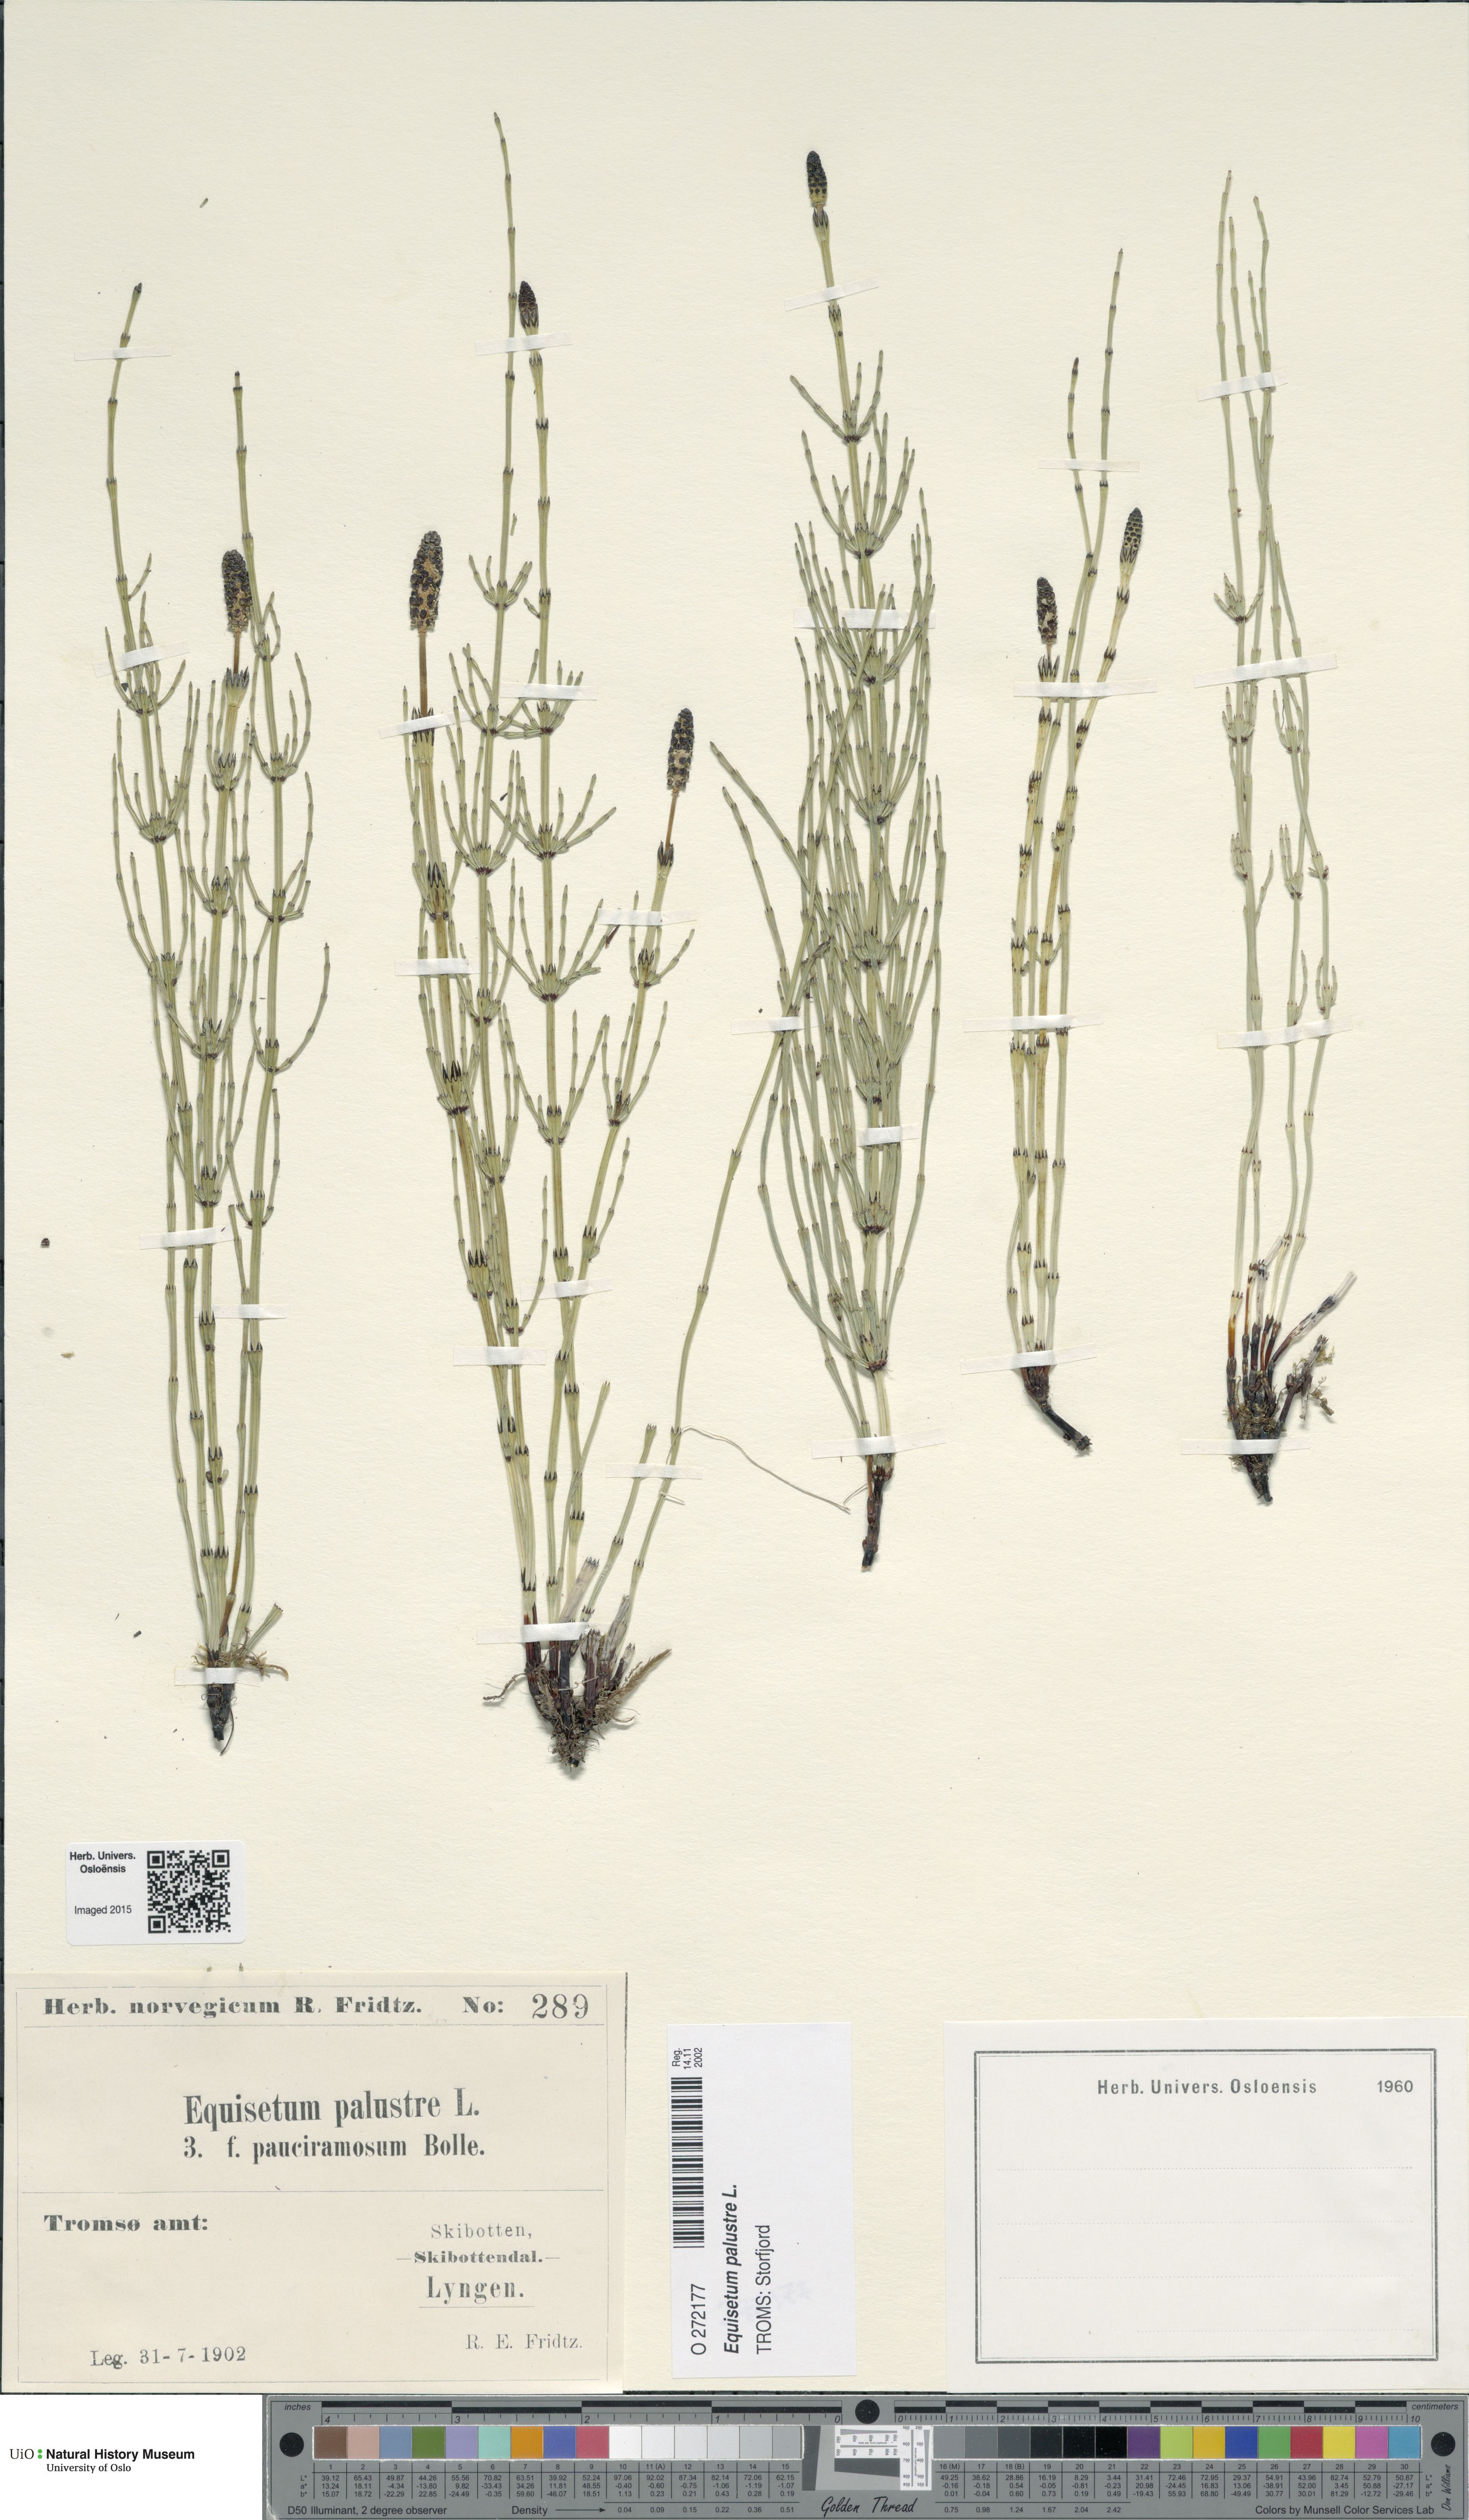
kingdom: Plantae
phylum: Tracheophyta
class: Polypodiopsida
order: Equisetales
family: Equisetaceae
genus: Equisetum
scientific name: Equisetum palustre
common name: Marsh horsetail
